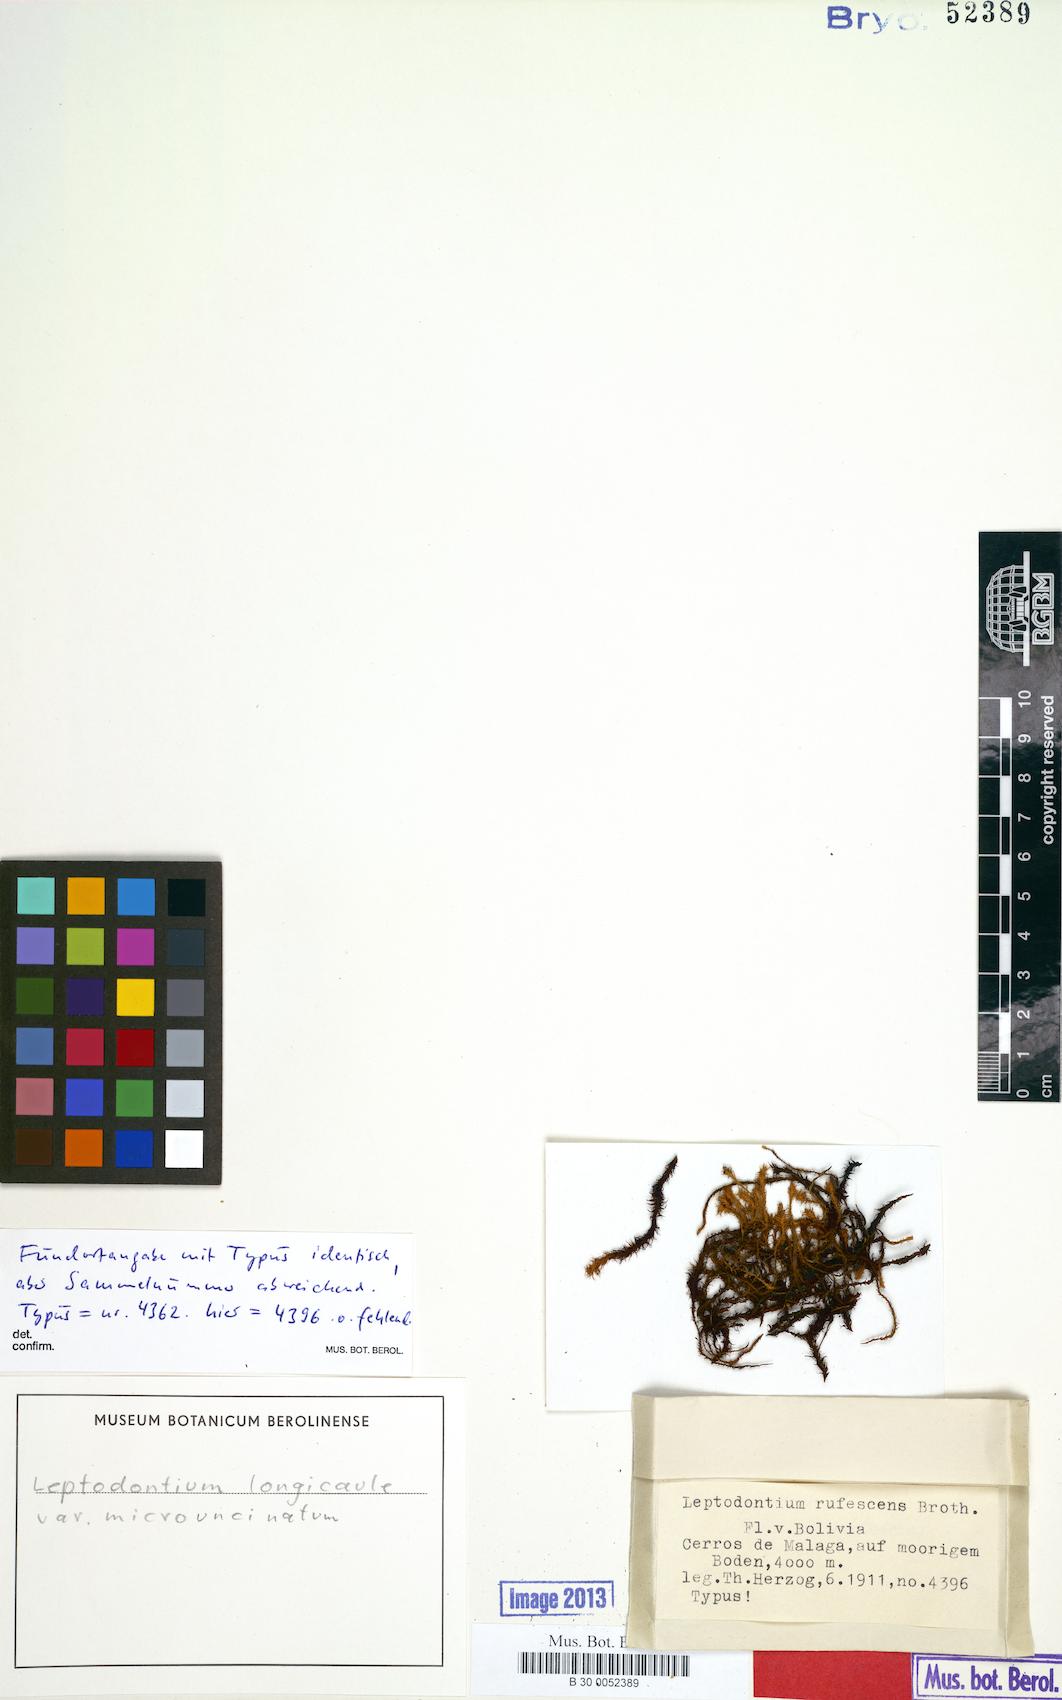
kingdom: Plantae
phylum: Bryophyta
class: Bryopsida
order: Pottiales
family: Pottiaceae
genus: Leptodontium
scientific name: Leptodontium longicaule
